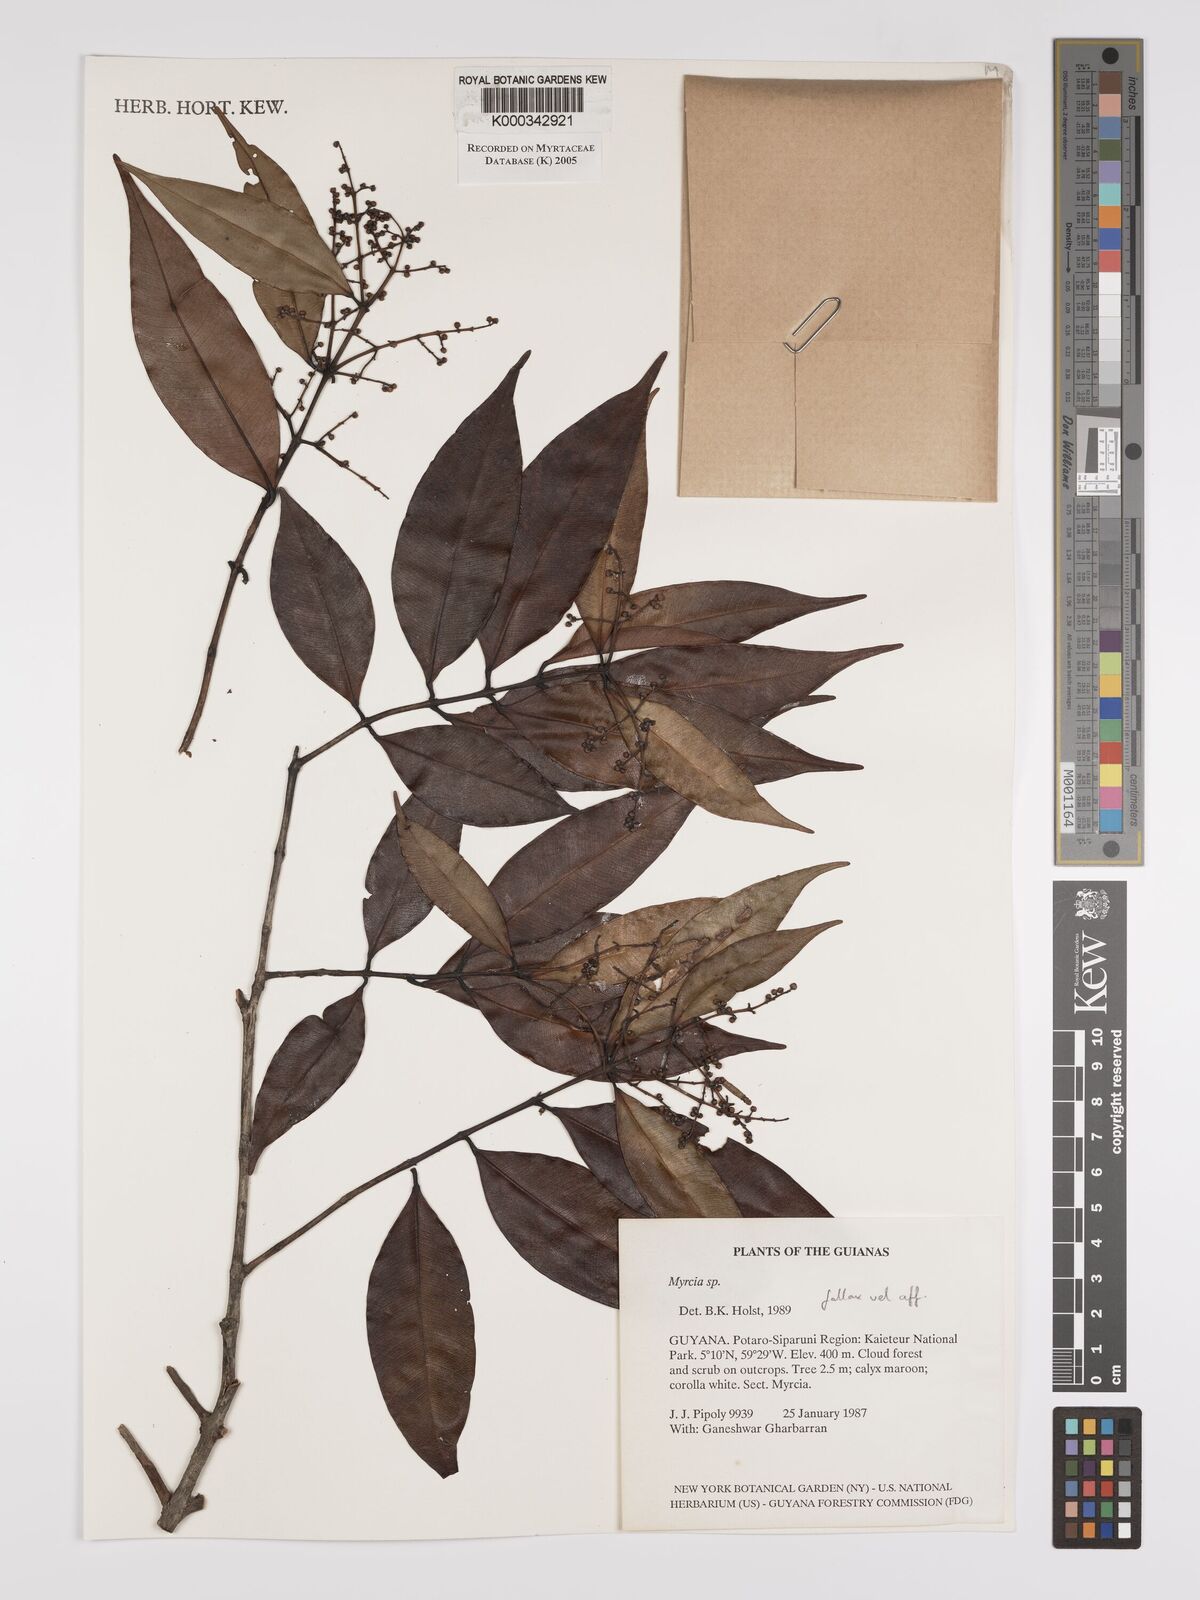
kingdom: Plantae
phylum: Tracheophyta
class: Magnoliopsida
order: Myrtales
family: Myrtaceae
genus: Myrcia
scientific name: Myrcia splendens
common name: Surinam cherry
